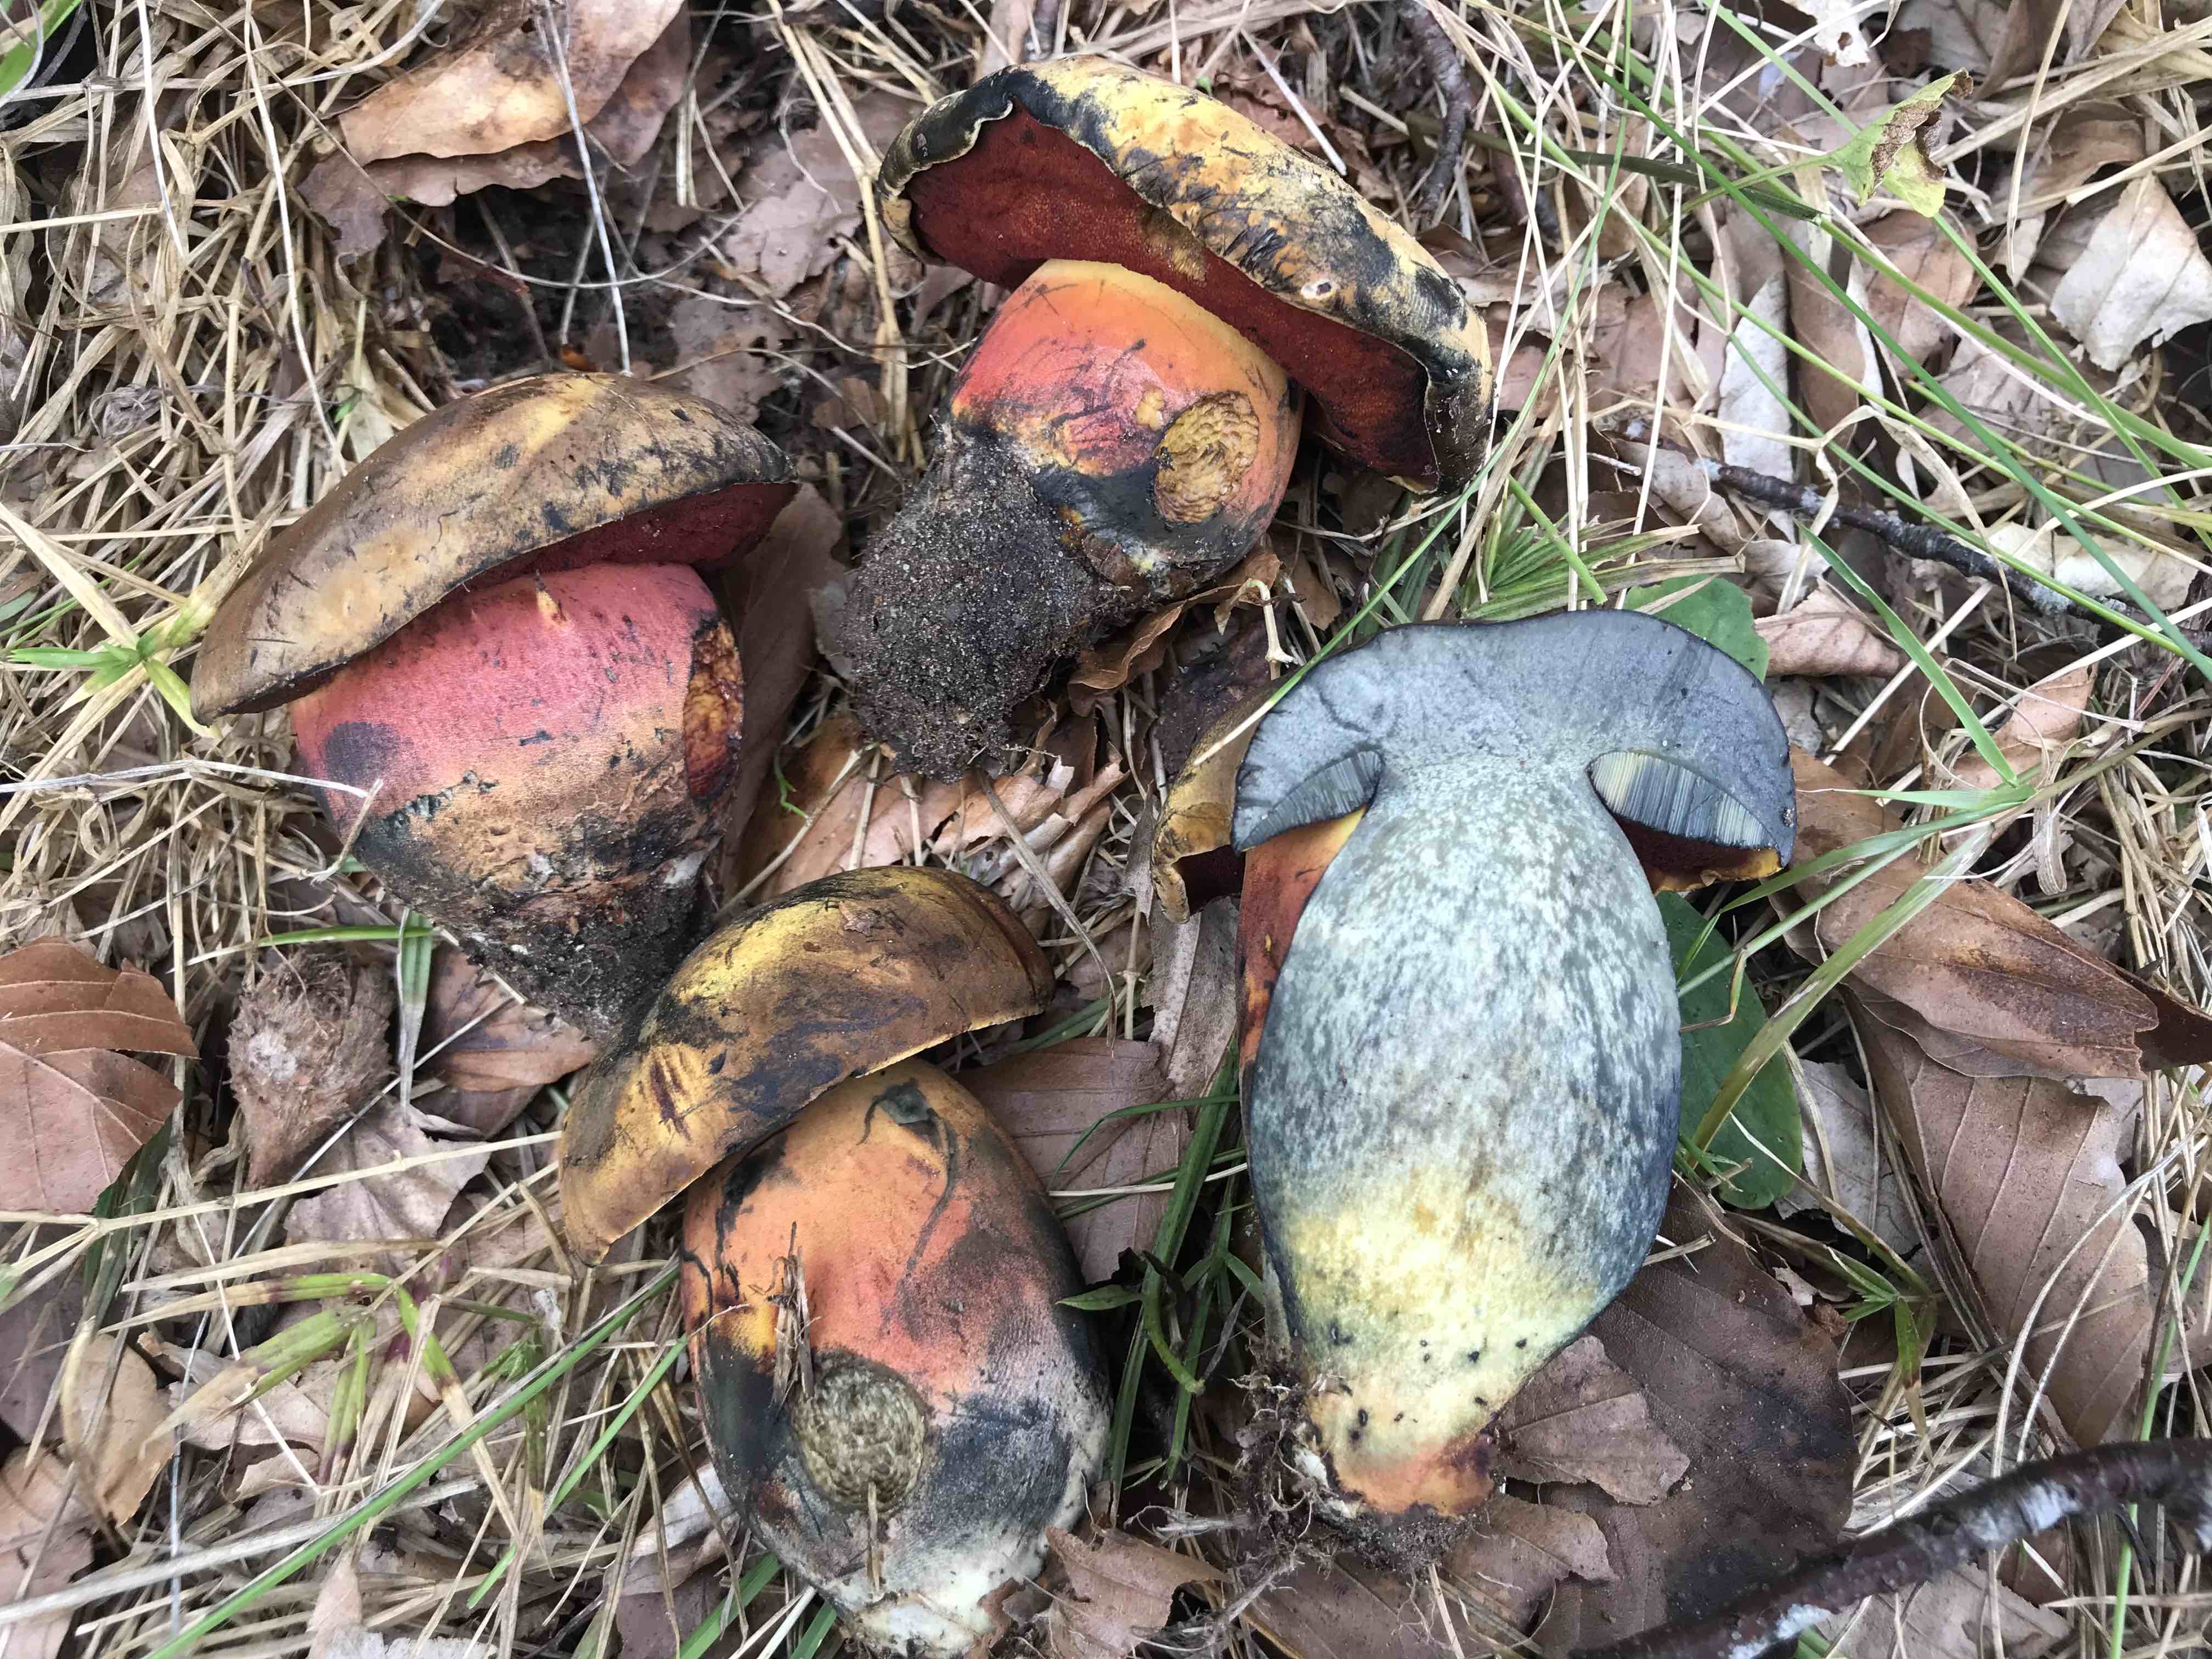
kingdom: Fungi
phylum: Basidiomycota
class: Agaricomycetes
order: Boletales
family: Boletaceae
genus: Neoboletus
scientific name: Neoboletus erythropus
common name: punktstokket indigorørhat
